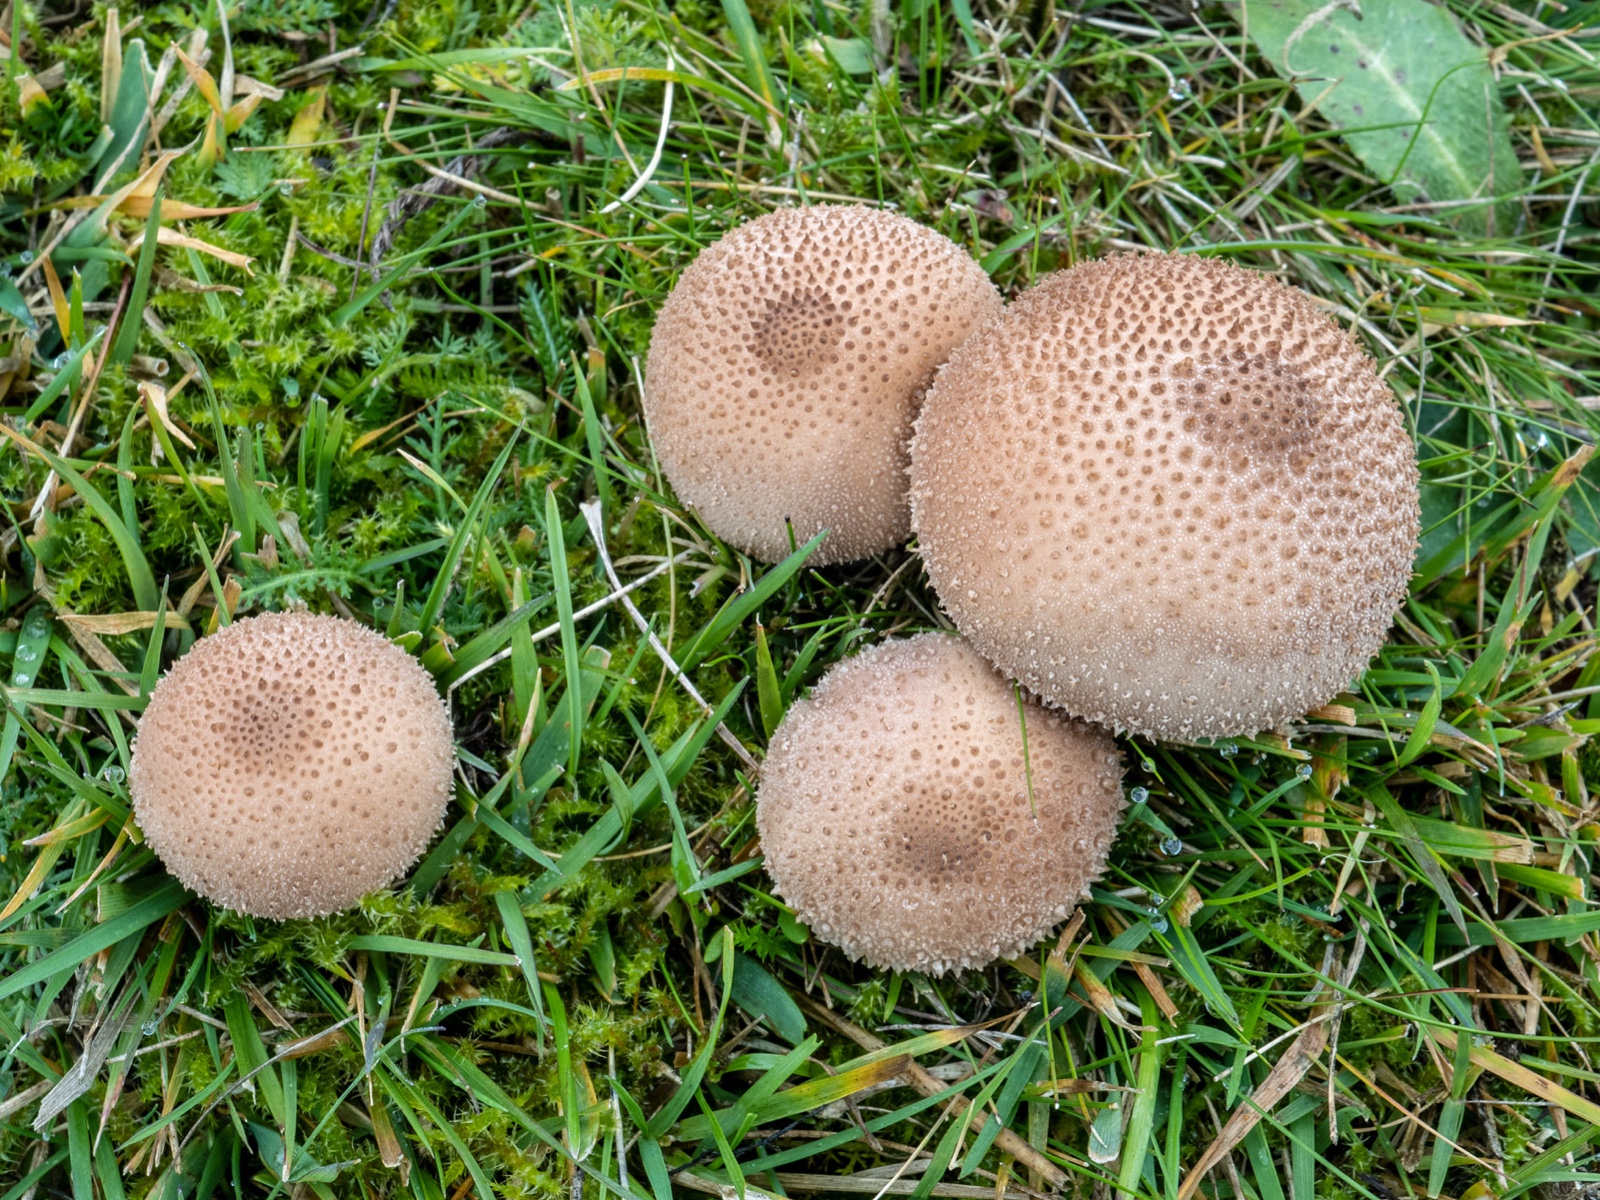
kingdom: Fungi
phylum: Basidiomycota
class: Agaricomycetes
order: Agaricales
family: Lycoperdaceae
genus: Lycoperdon
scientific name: Lycoperdon perlatum
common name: krystal-støvbold
